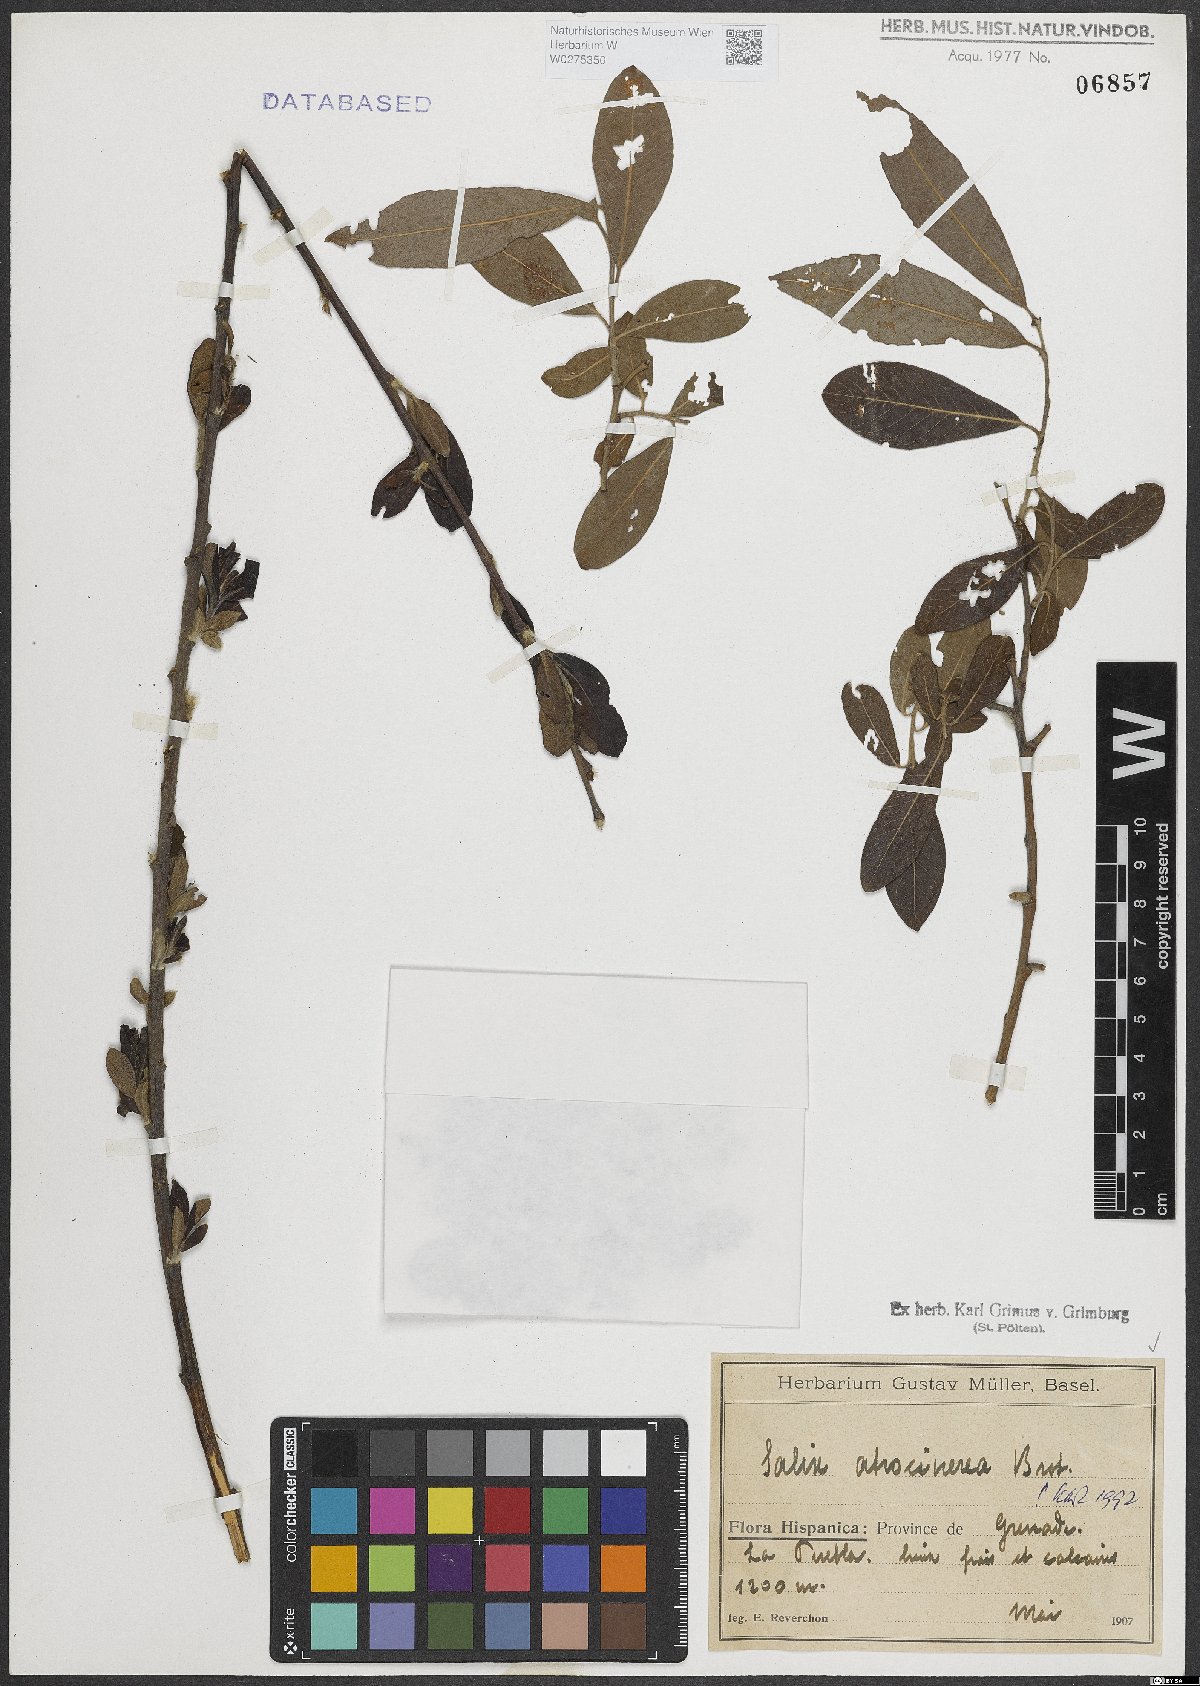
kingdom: Plantae
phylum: Tracheophyta
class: Magnoliopsida
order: Malpighiales
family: Salicaceae
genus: Salix
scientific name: Salix atrocinerea
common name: Rusty willow
